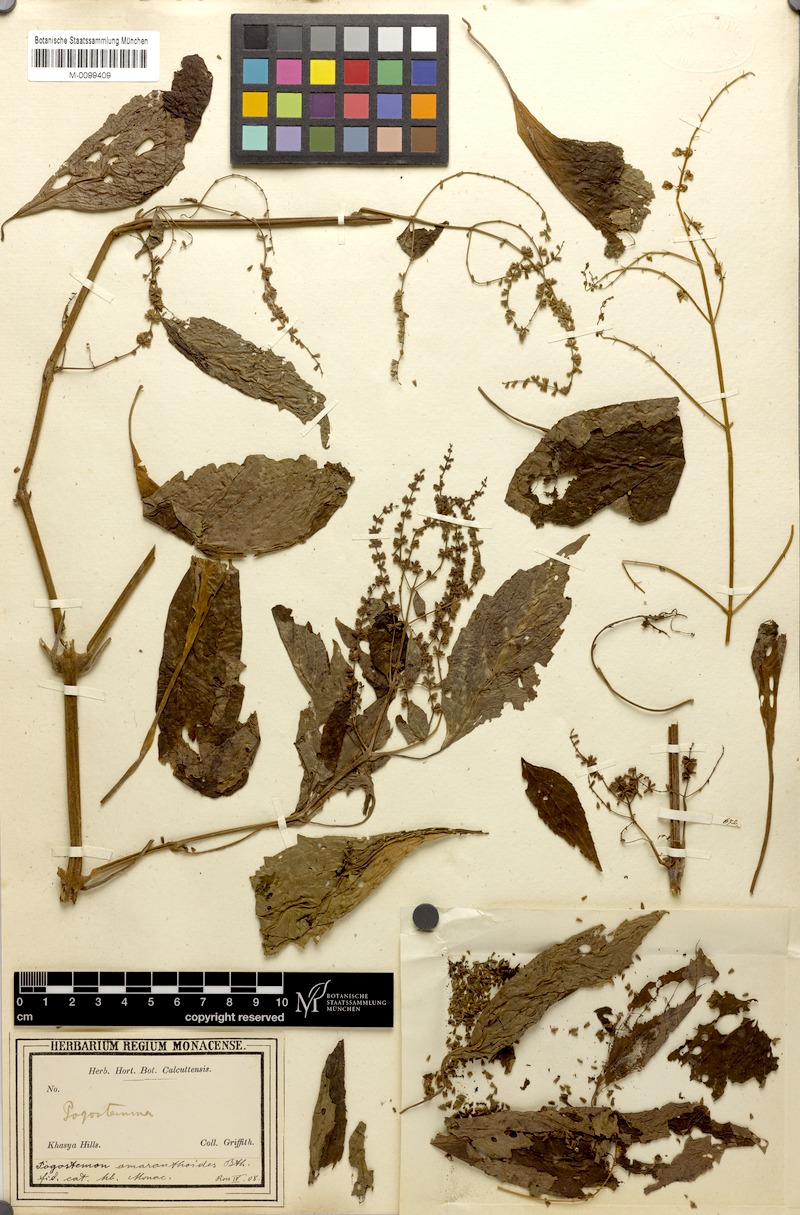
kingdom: Plantae
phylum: Tracheophyta
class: Magnoliopsida
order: Lamiales
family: Lamiaceae
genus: Pogostemon
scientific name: Pogostemon amaranthoides
